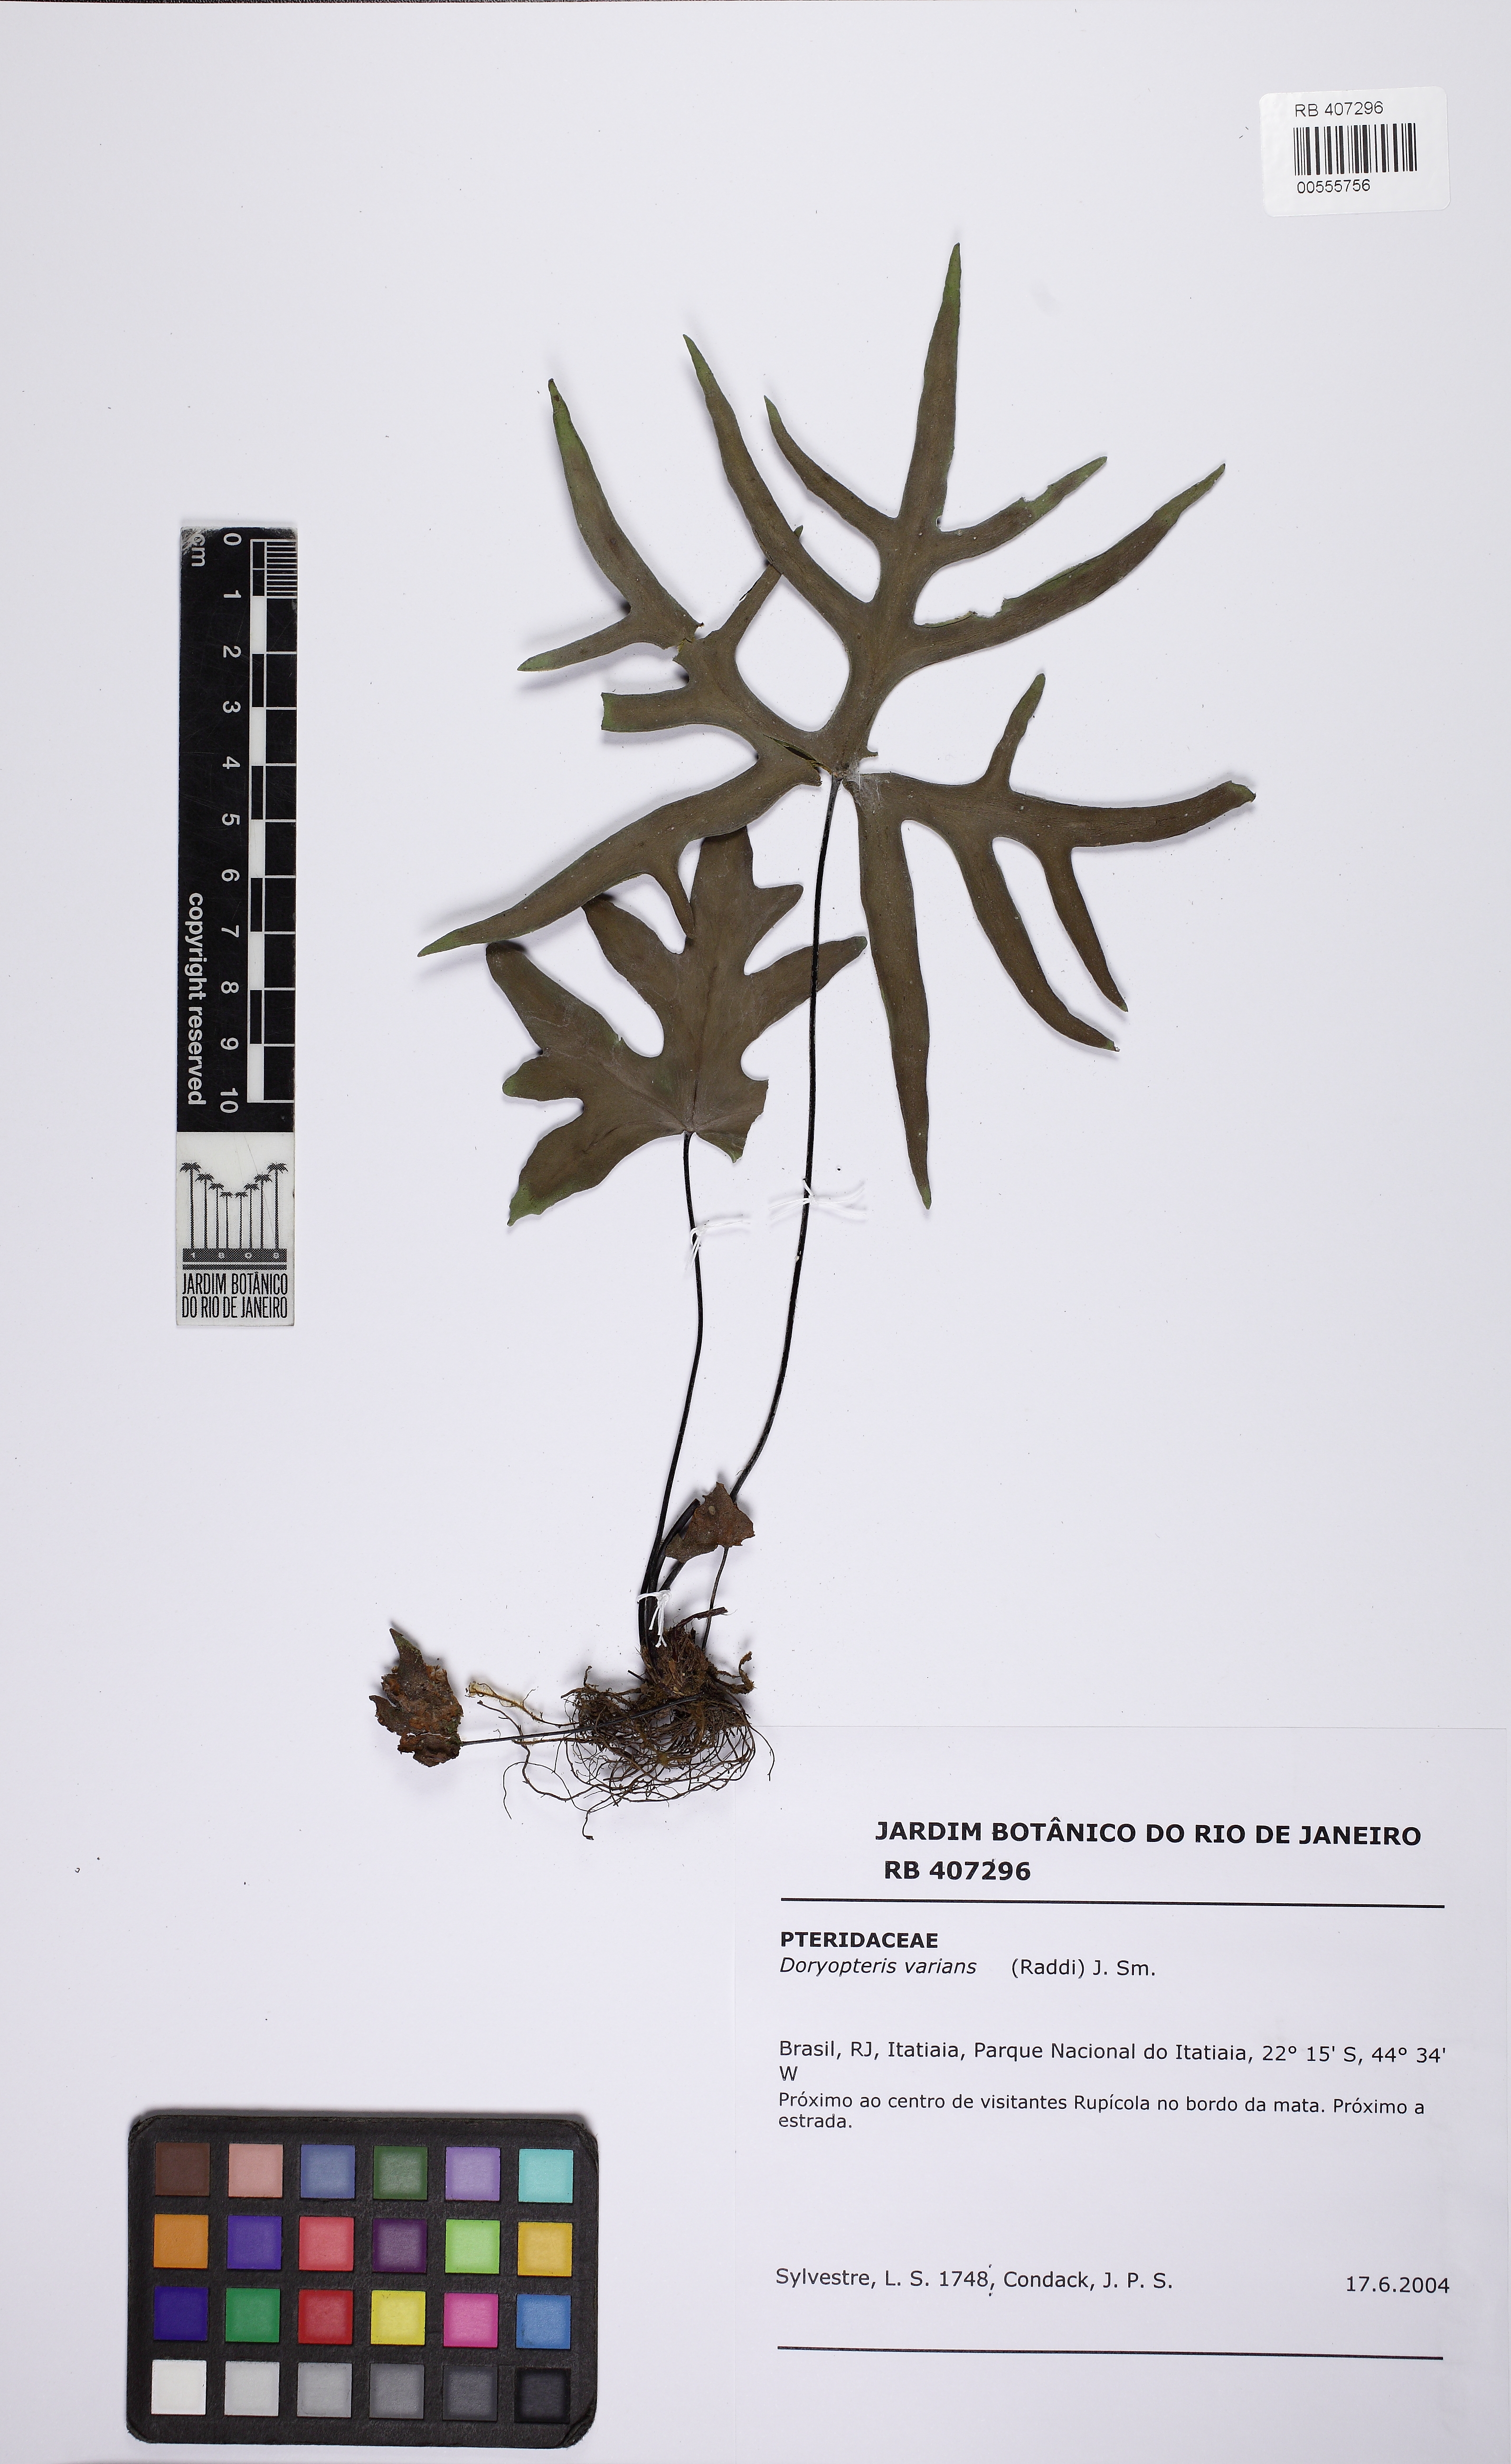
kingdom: Plantae
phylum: Tracheophyta
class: Polypodiopsida
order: Polypodiales
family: Pteridaceae
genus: Doryopteris
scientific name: Doryopteris varians
